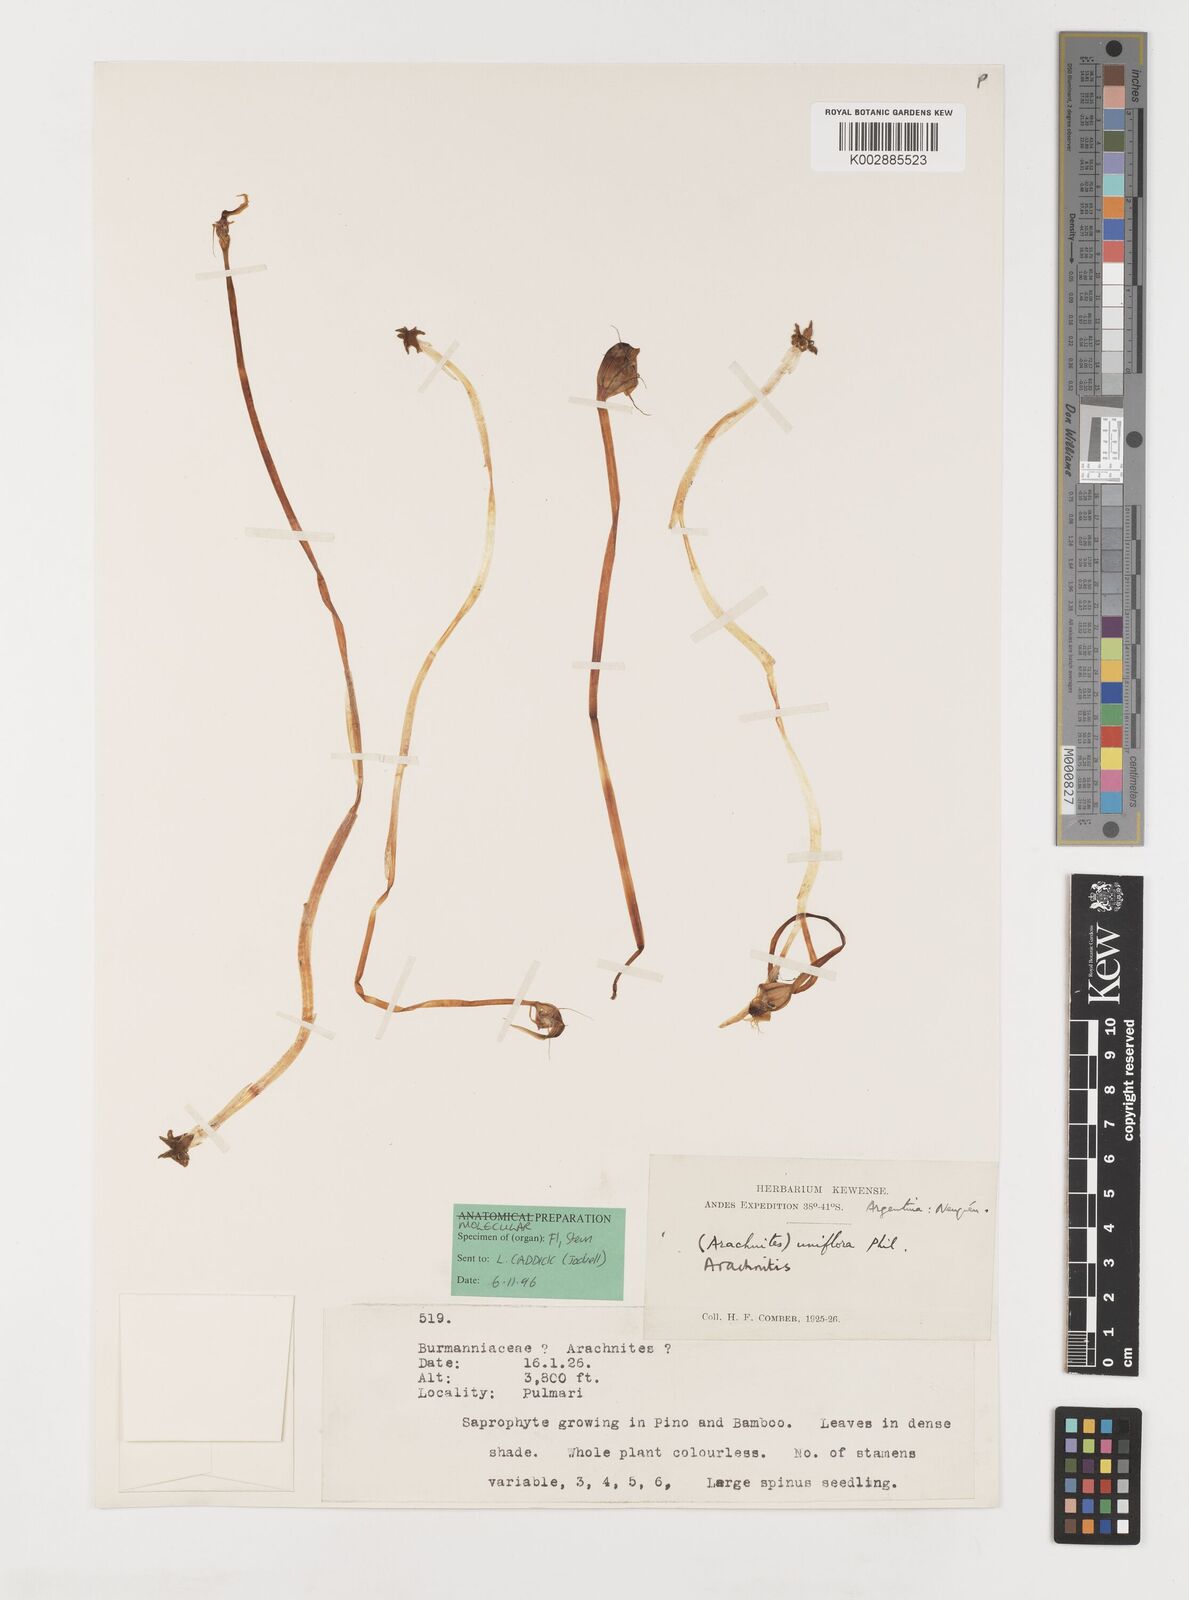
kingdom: Plantae
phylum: Tracheophyta
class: Liliopsida
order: Liliales
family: Corsiaceae
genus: Arachnitis
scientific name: Arachnitis uniflora
